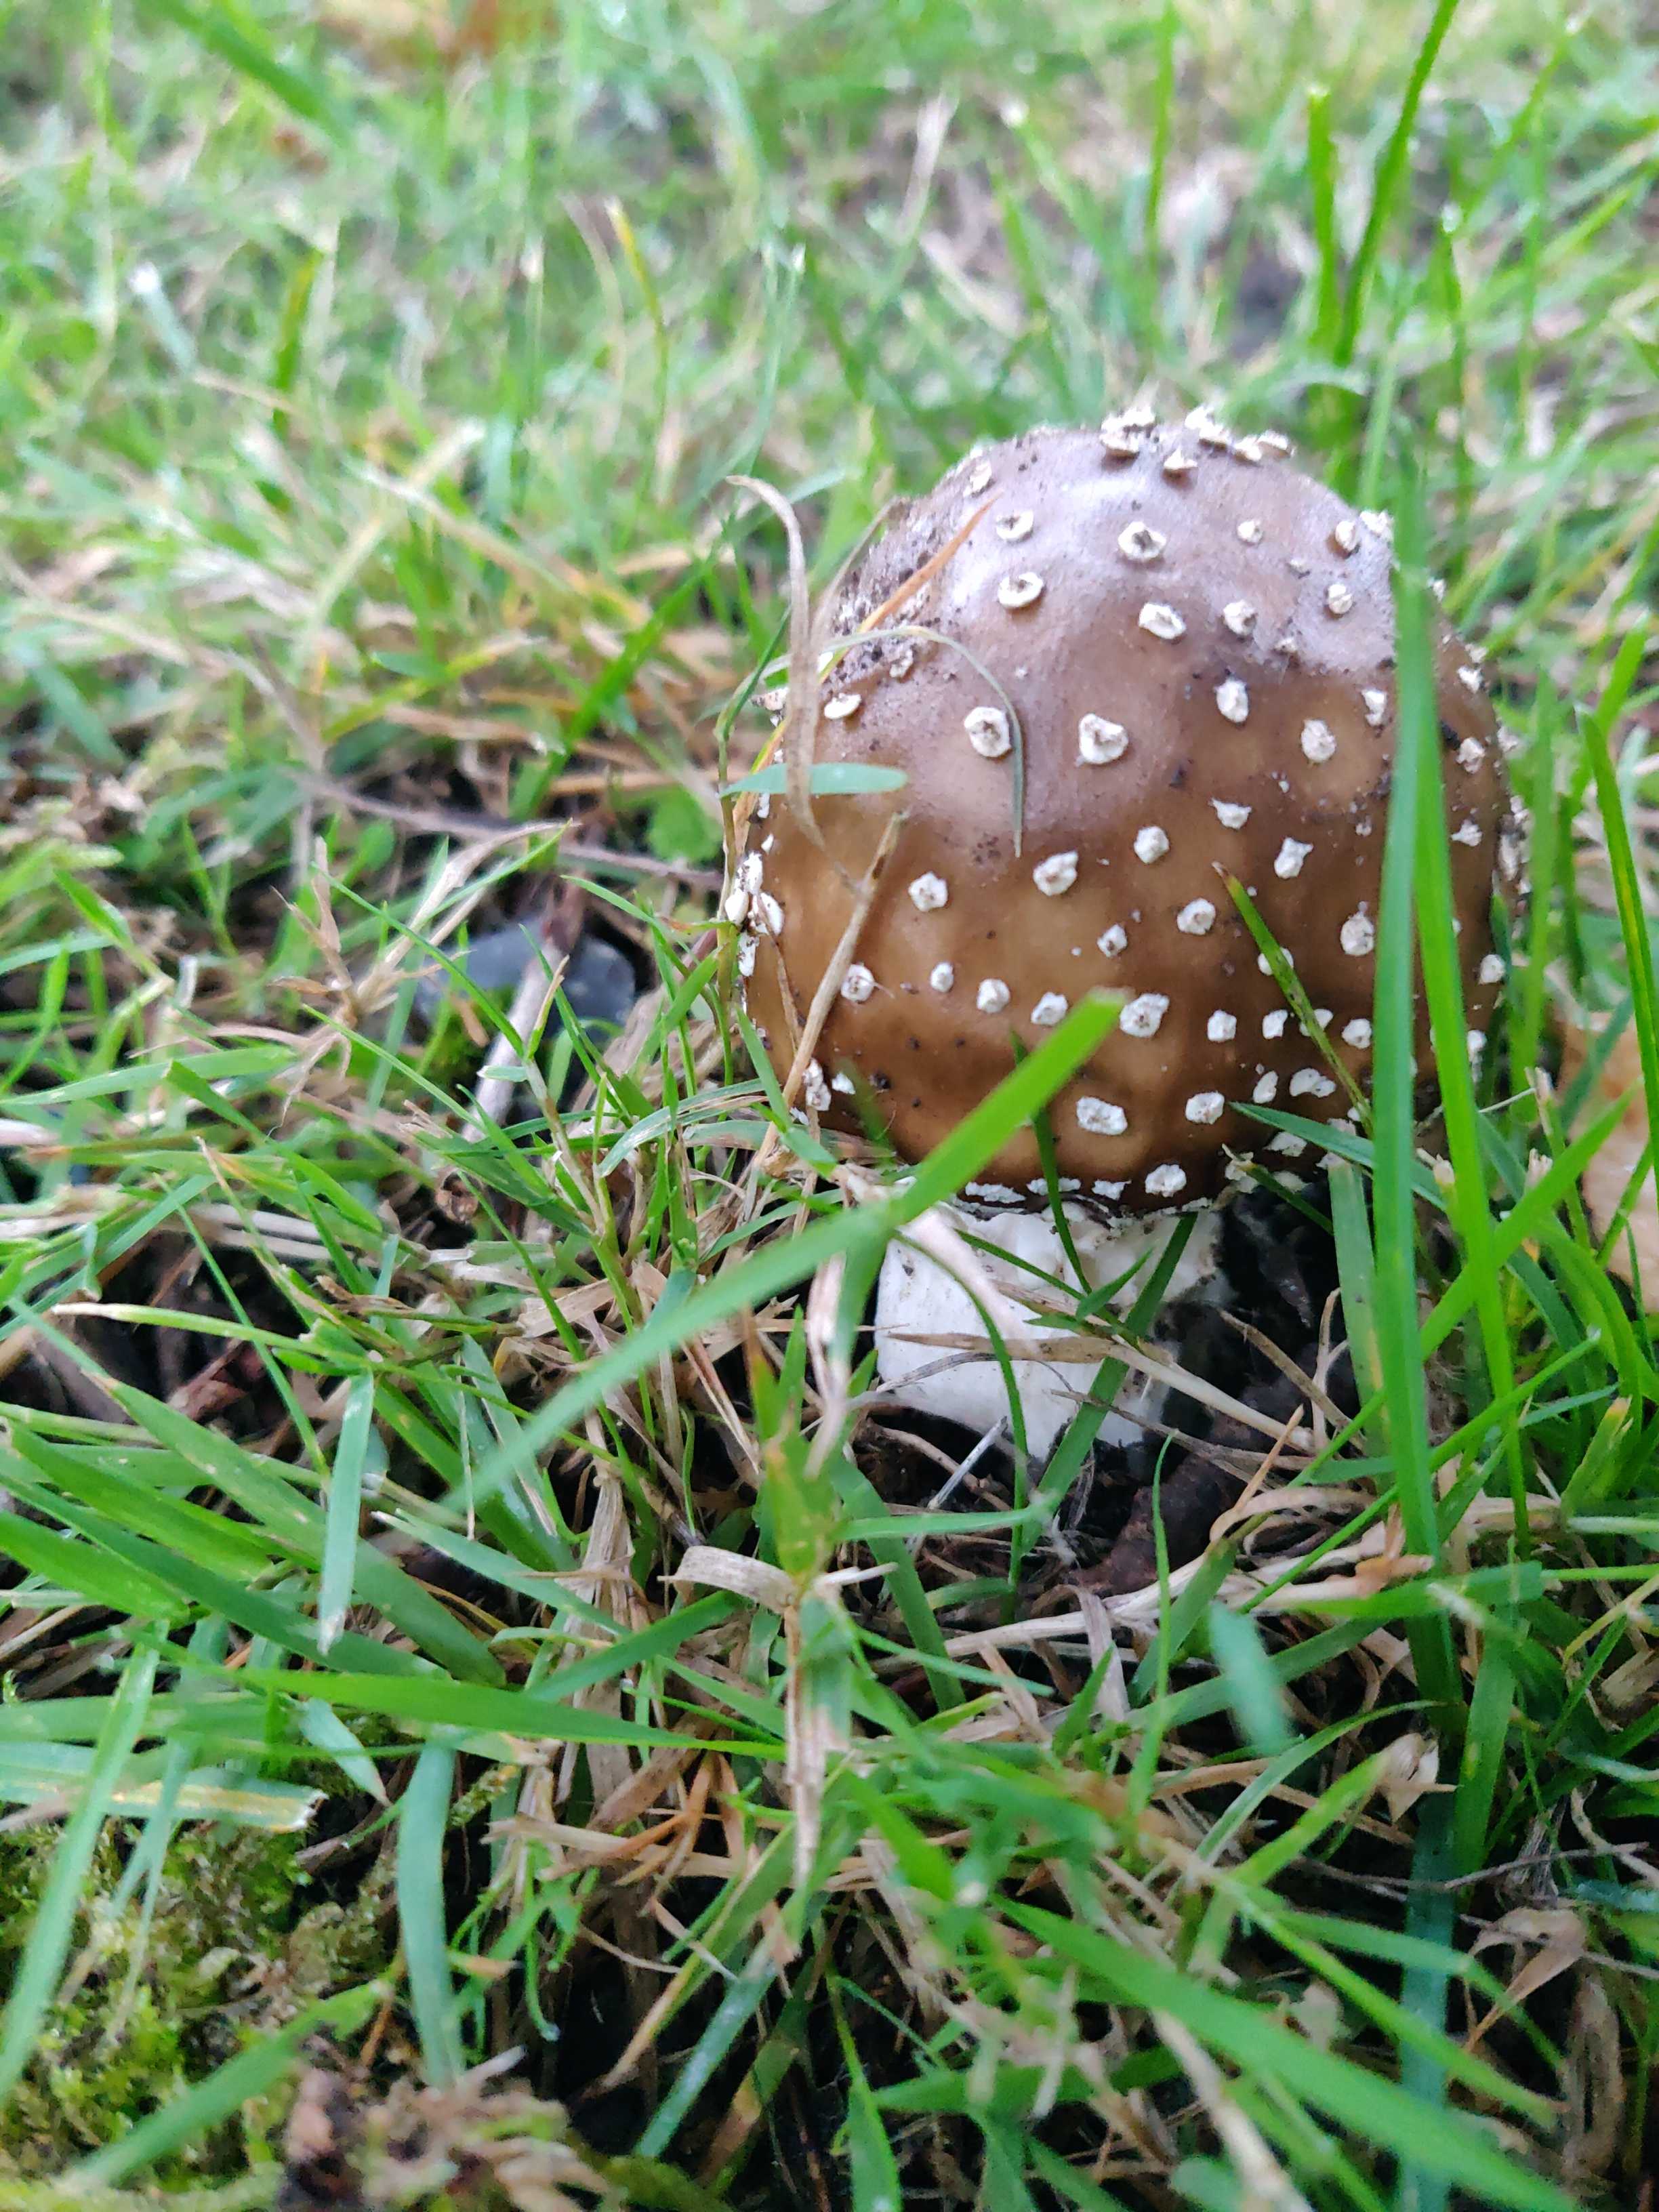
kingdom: Fungi
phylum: Basidiomycota
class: Agaricomycetes
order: Agaricales
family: Amanitaceae
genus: Amanita
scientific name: Amanita pantherina
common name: panter-fluesvamp
